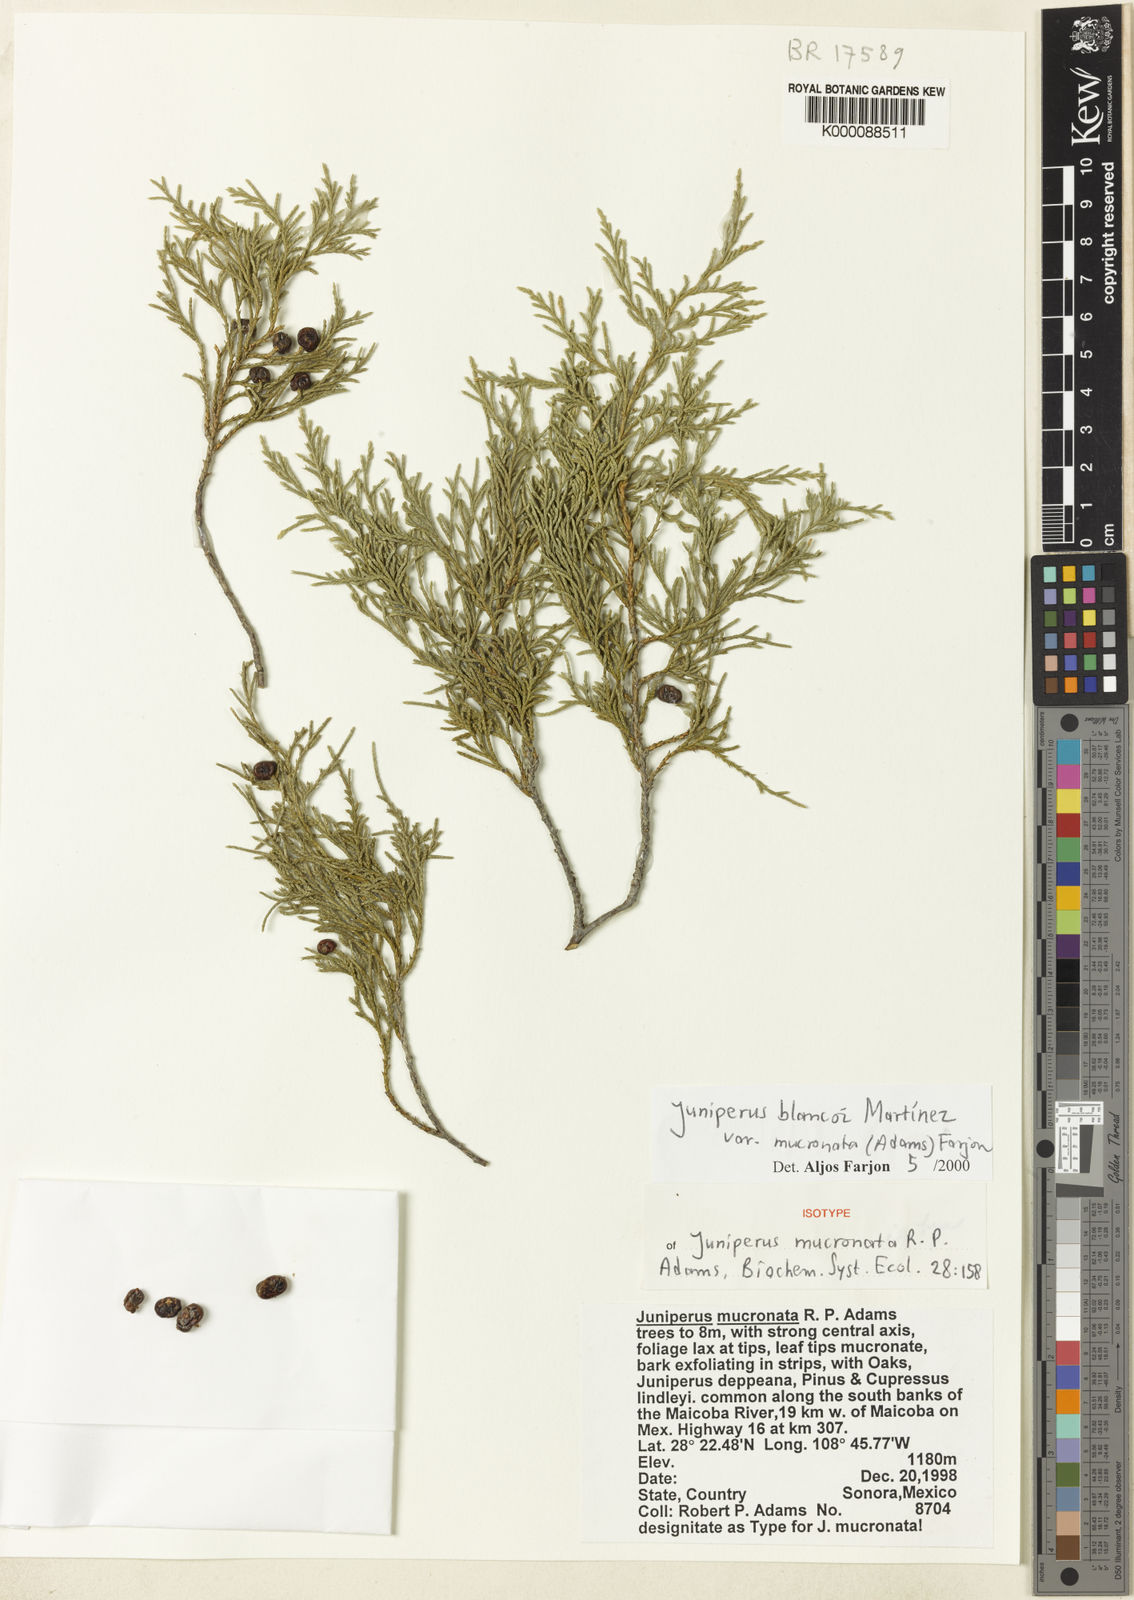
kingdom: Plantae
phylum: Tracheophyta
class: Pinopsida
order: Pinales
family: Cupressaceae
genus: Juniperus
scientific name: Juniperus blancoi
